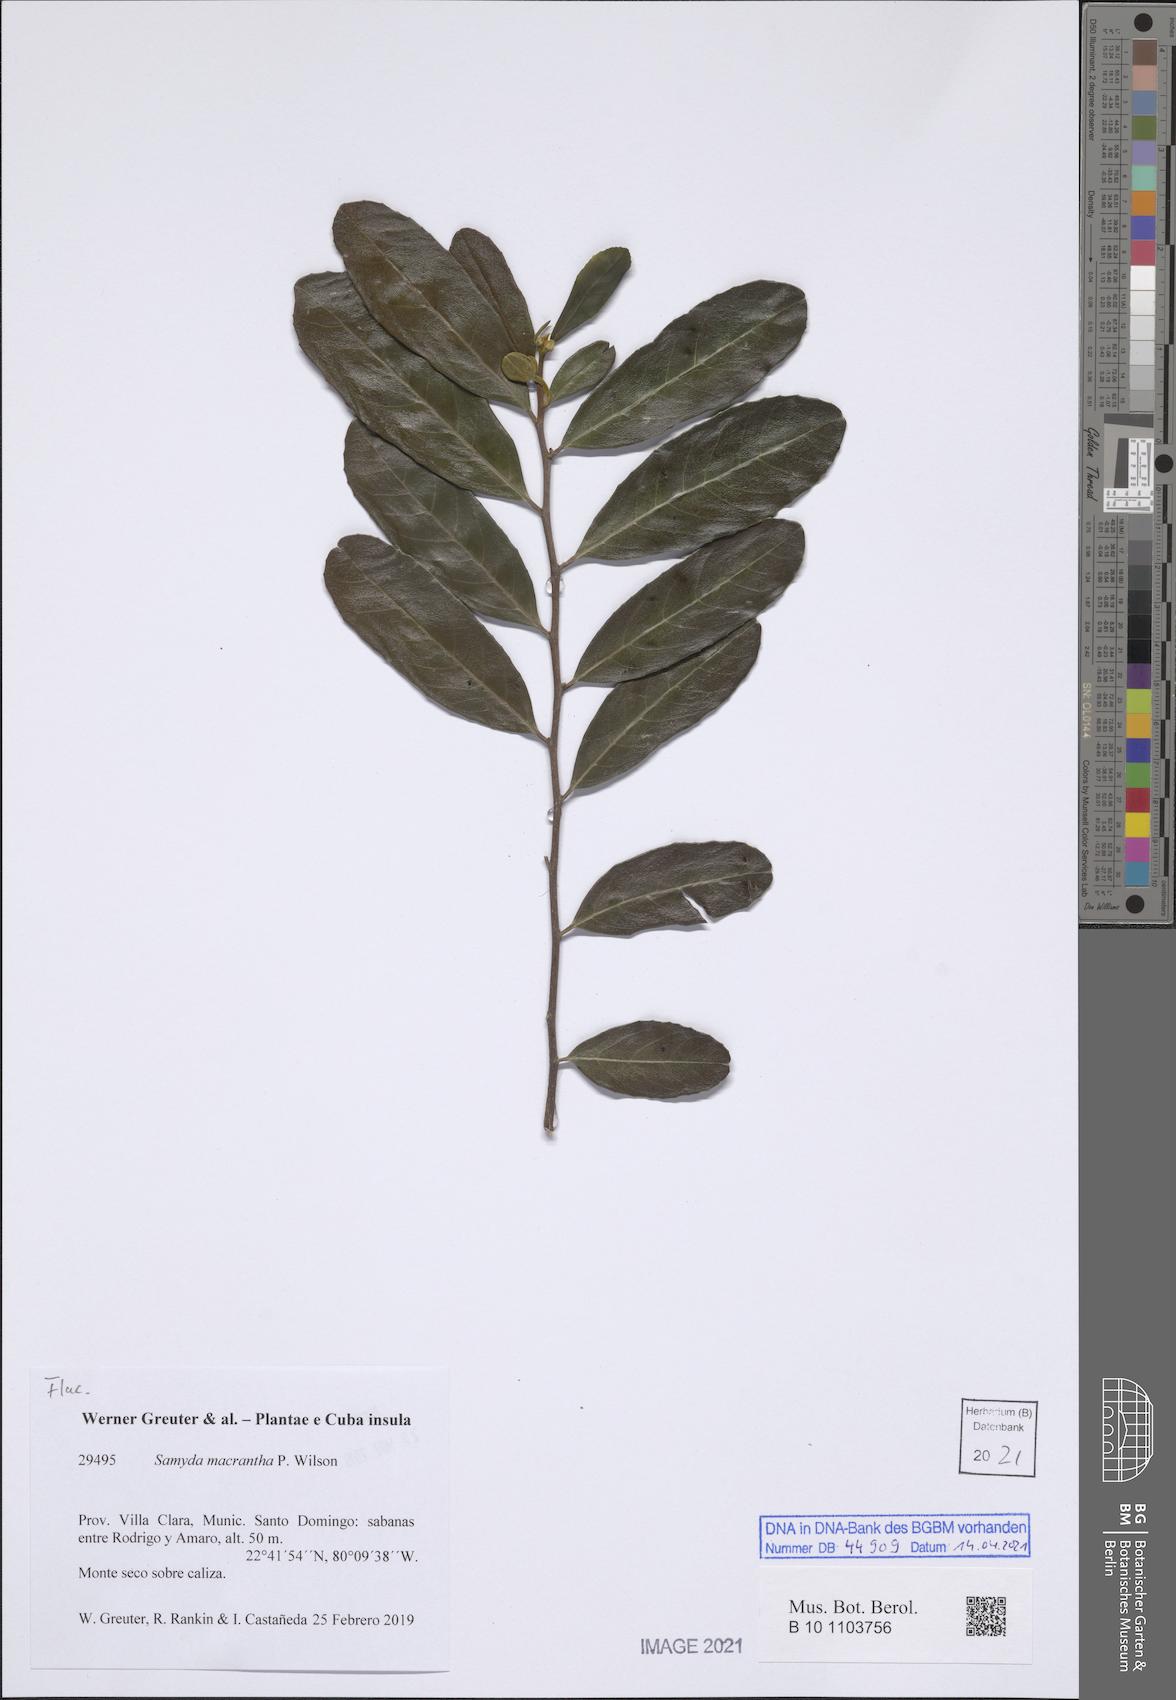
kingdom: Plantae
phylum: Tracheophyta
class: Magnoliopsida
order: Malpighiales
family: Salicaceae
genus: Casearia
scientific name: Casearia dolichanthera
